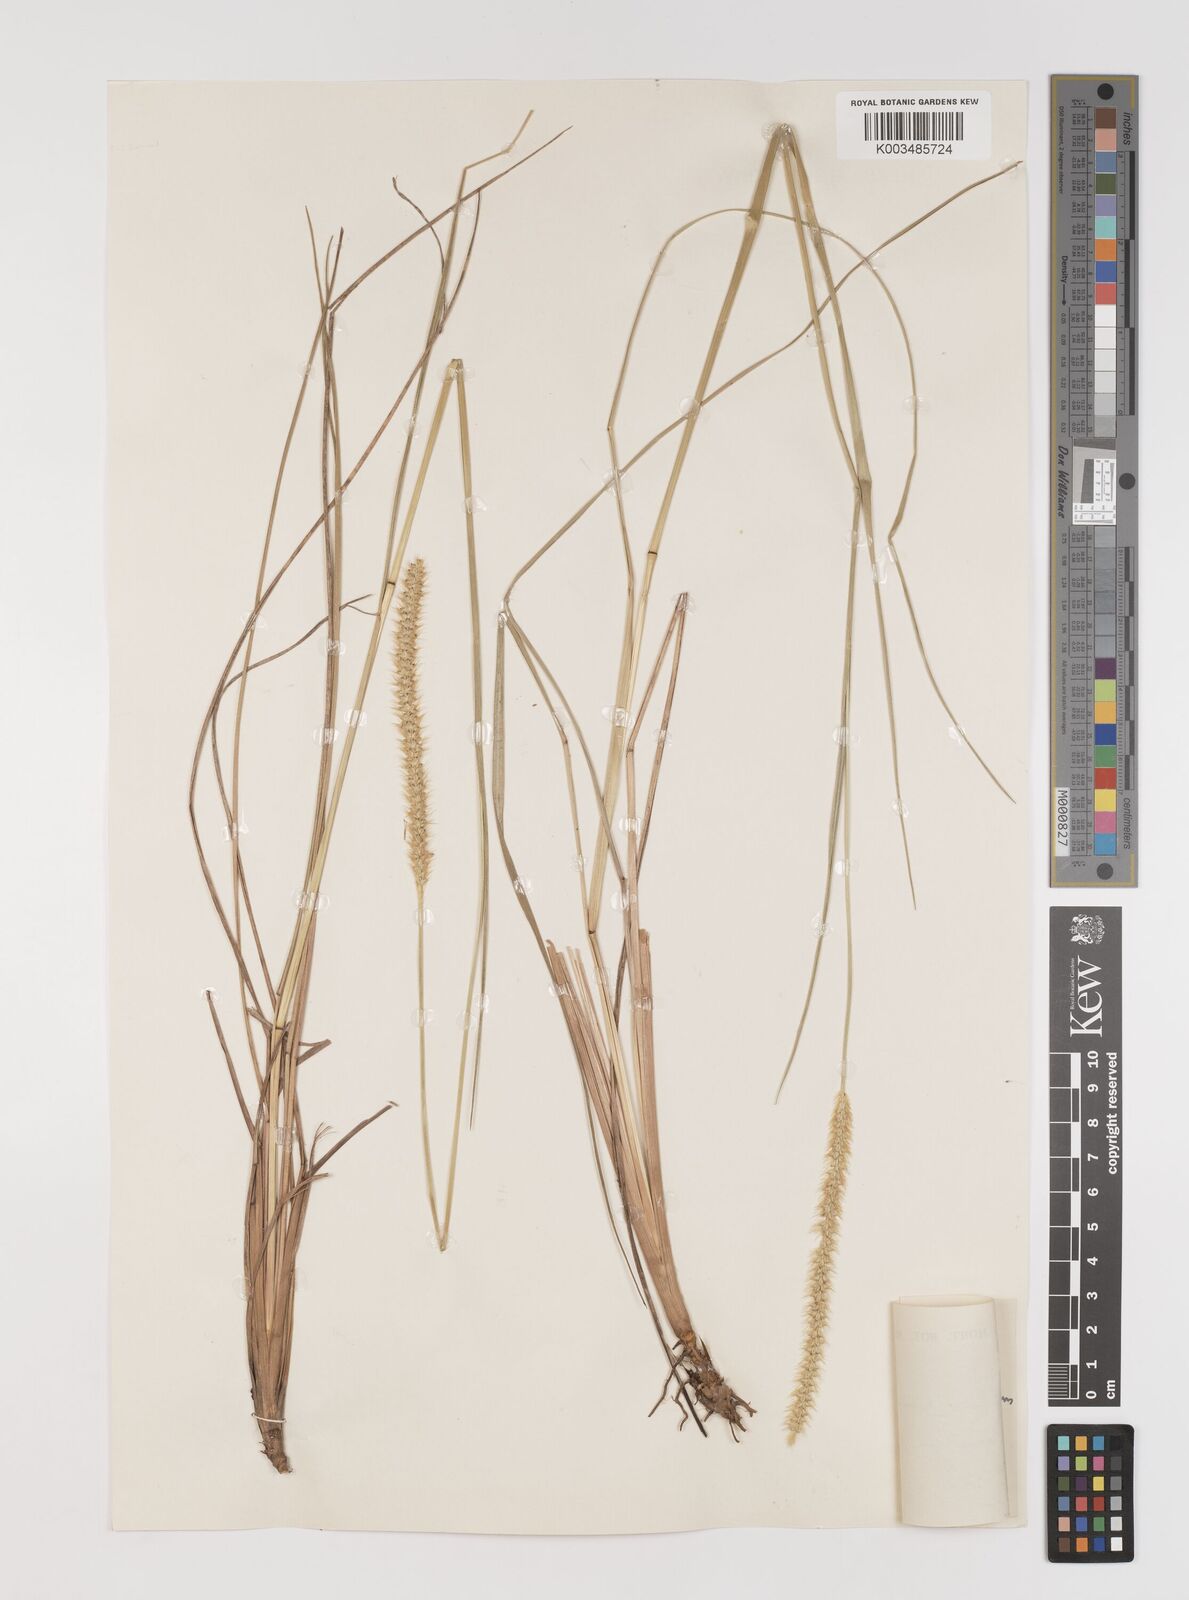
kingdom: Plantae
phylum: Tracheophyta
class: Liliopsida
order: Poales
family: Poaceae
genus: Setaria
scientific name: Setaria sphacelata
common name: African bristlegrass
